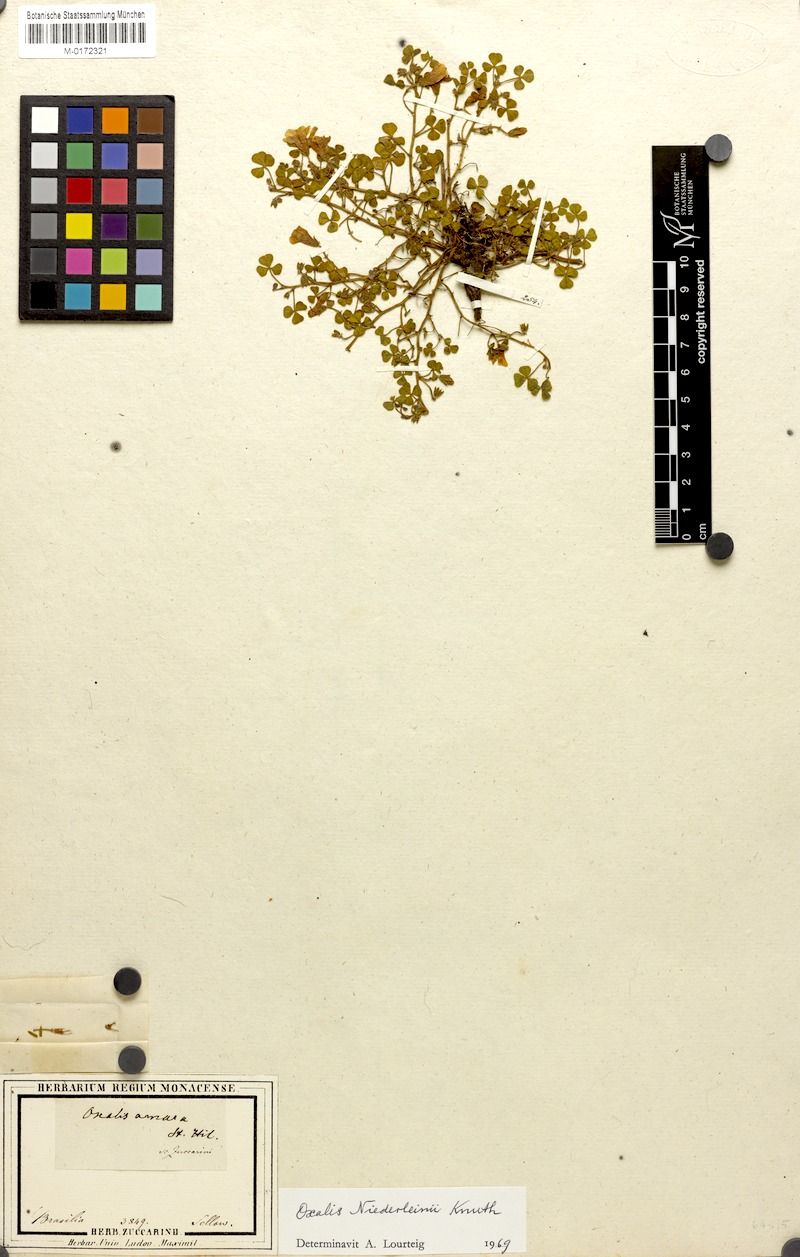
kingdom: Plantae
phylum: Tracheophyta
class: Magnoliopsida
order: Oxalidales
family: Oxalidaceae
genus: Oxalis
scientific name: Oxalis niederleinii
